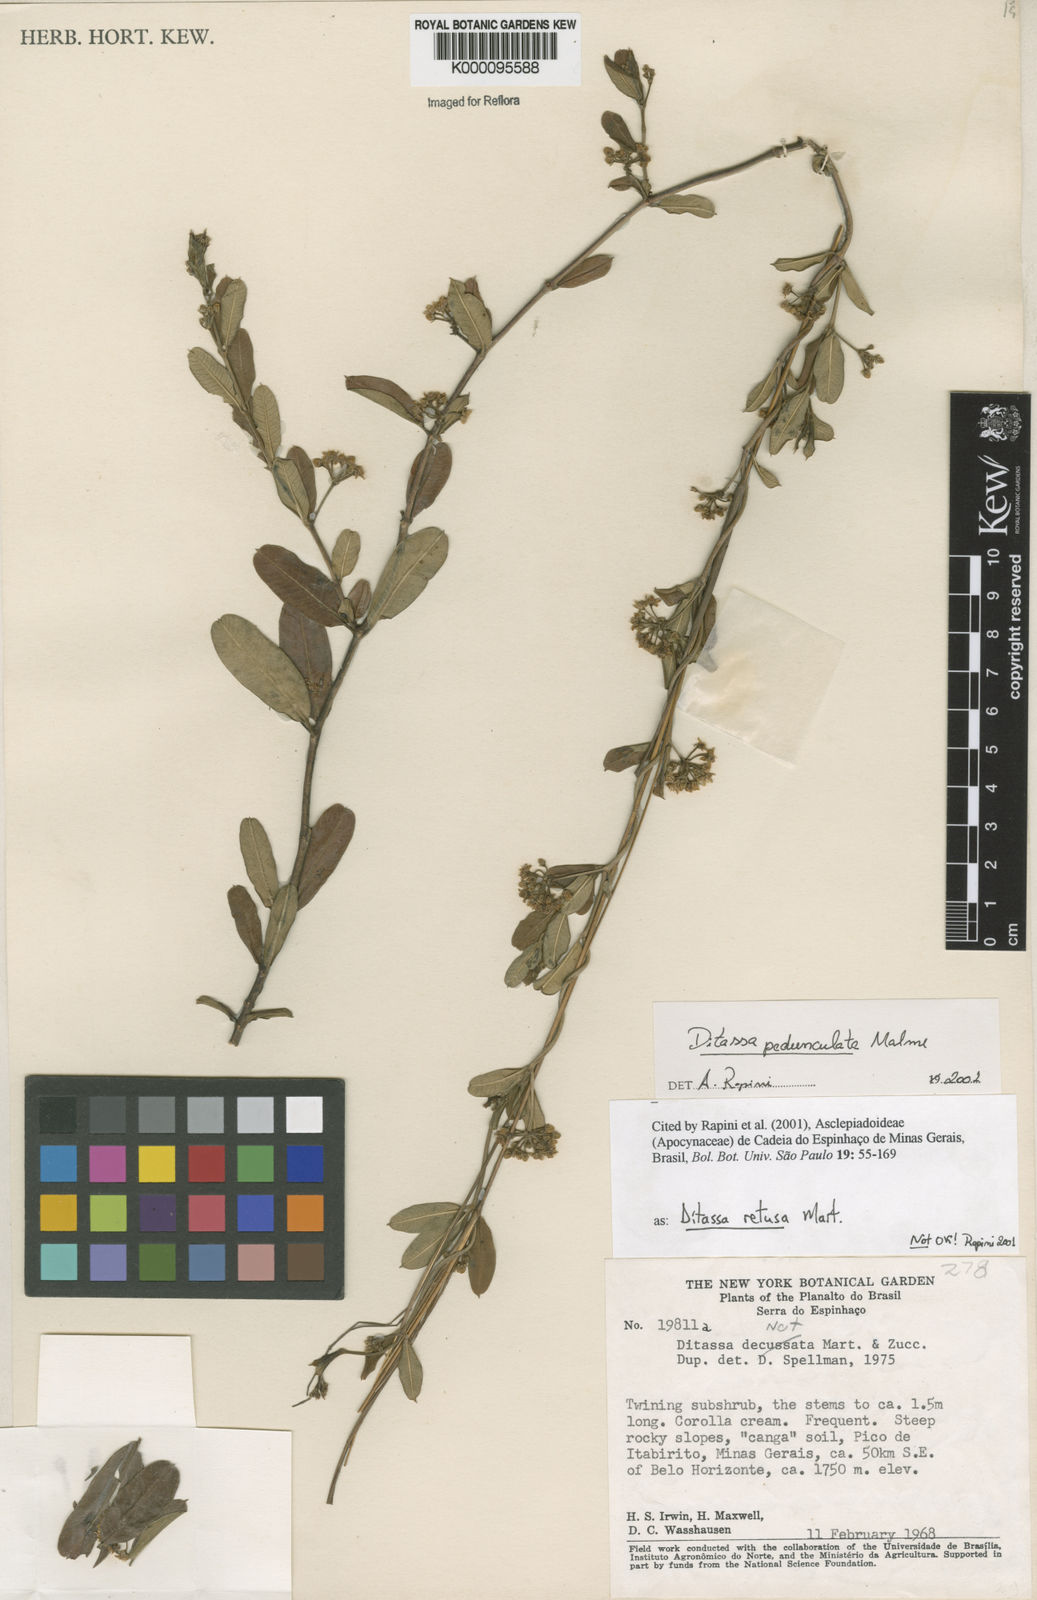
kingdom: Plantae
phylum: Tracheophyta
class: Magnoliopsida
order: Gentianales
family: Apocynaceae
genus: Ditassa
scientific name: Ditassa pedunculata
